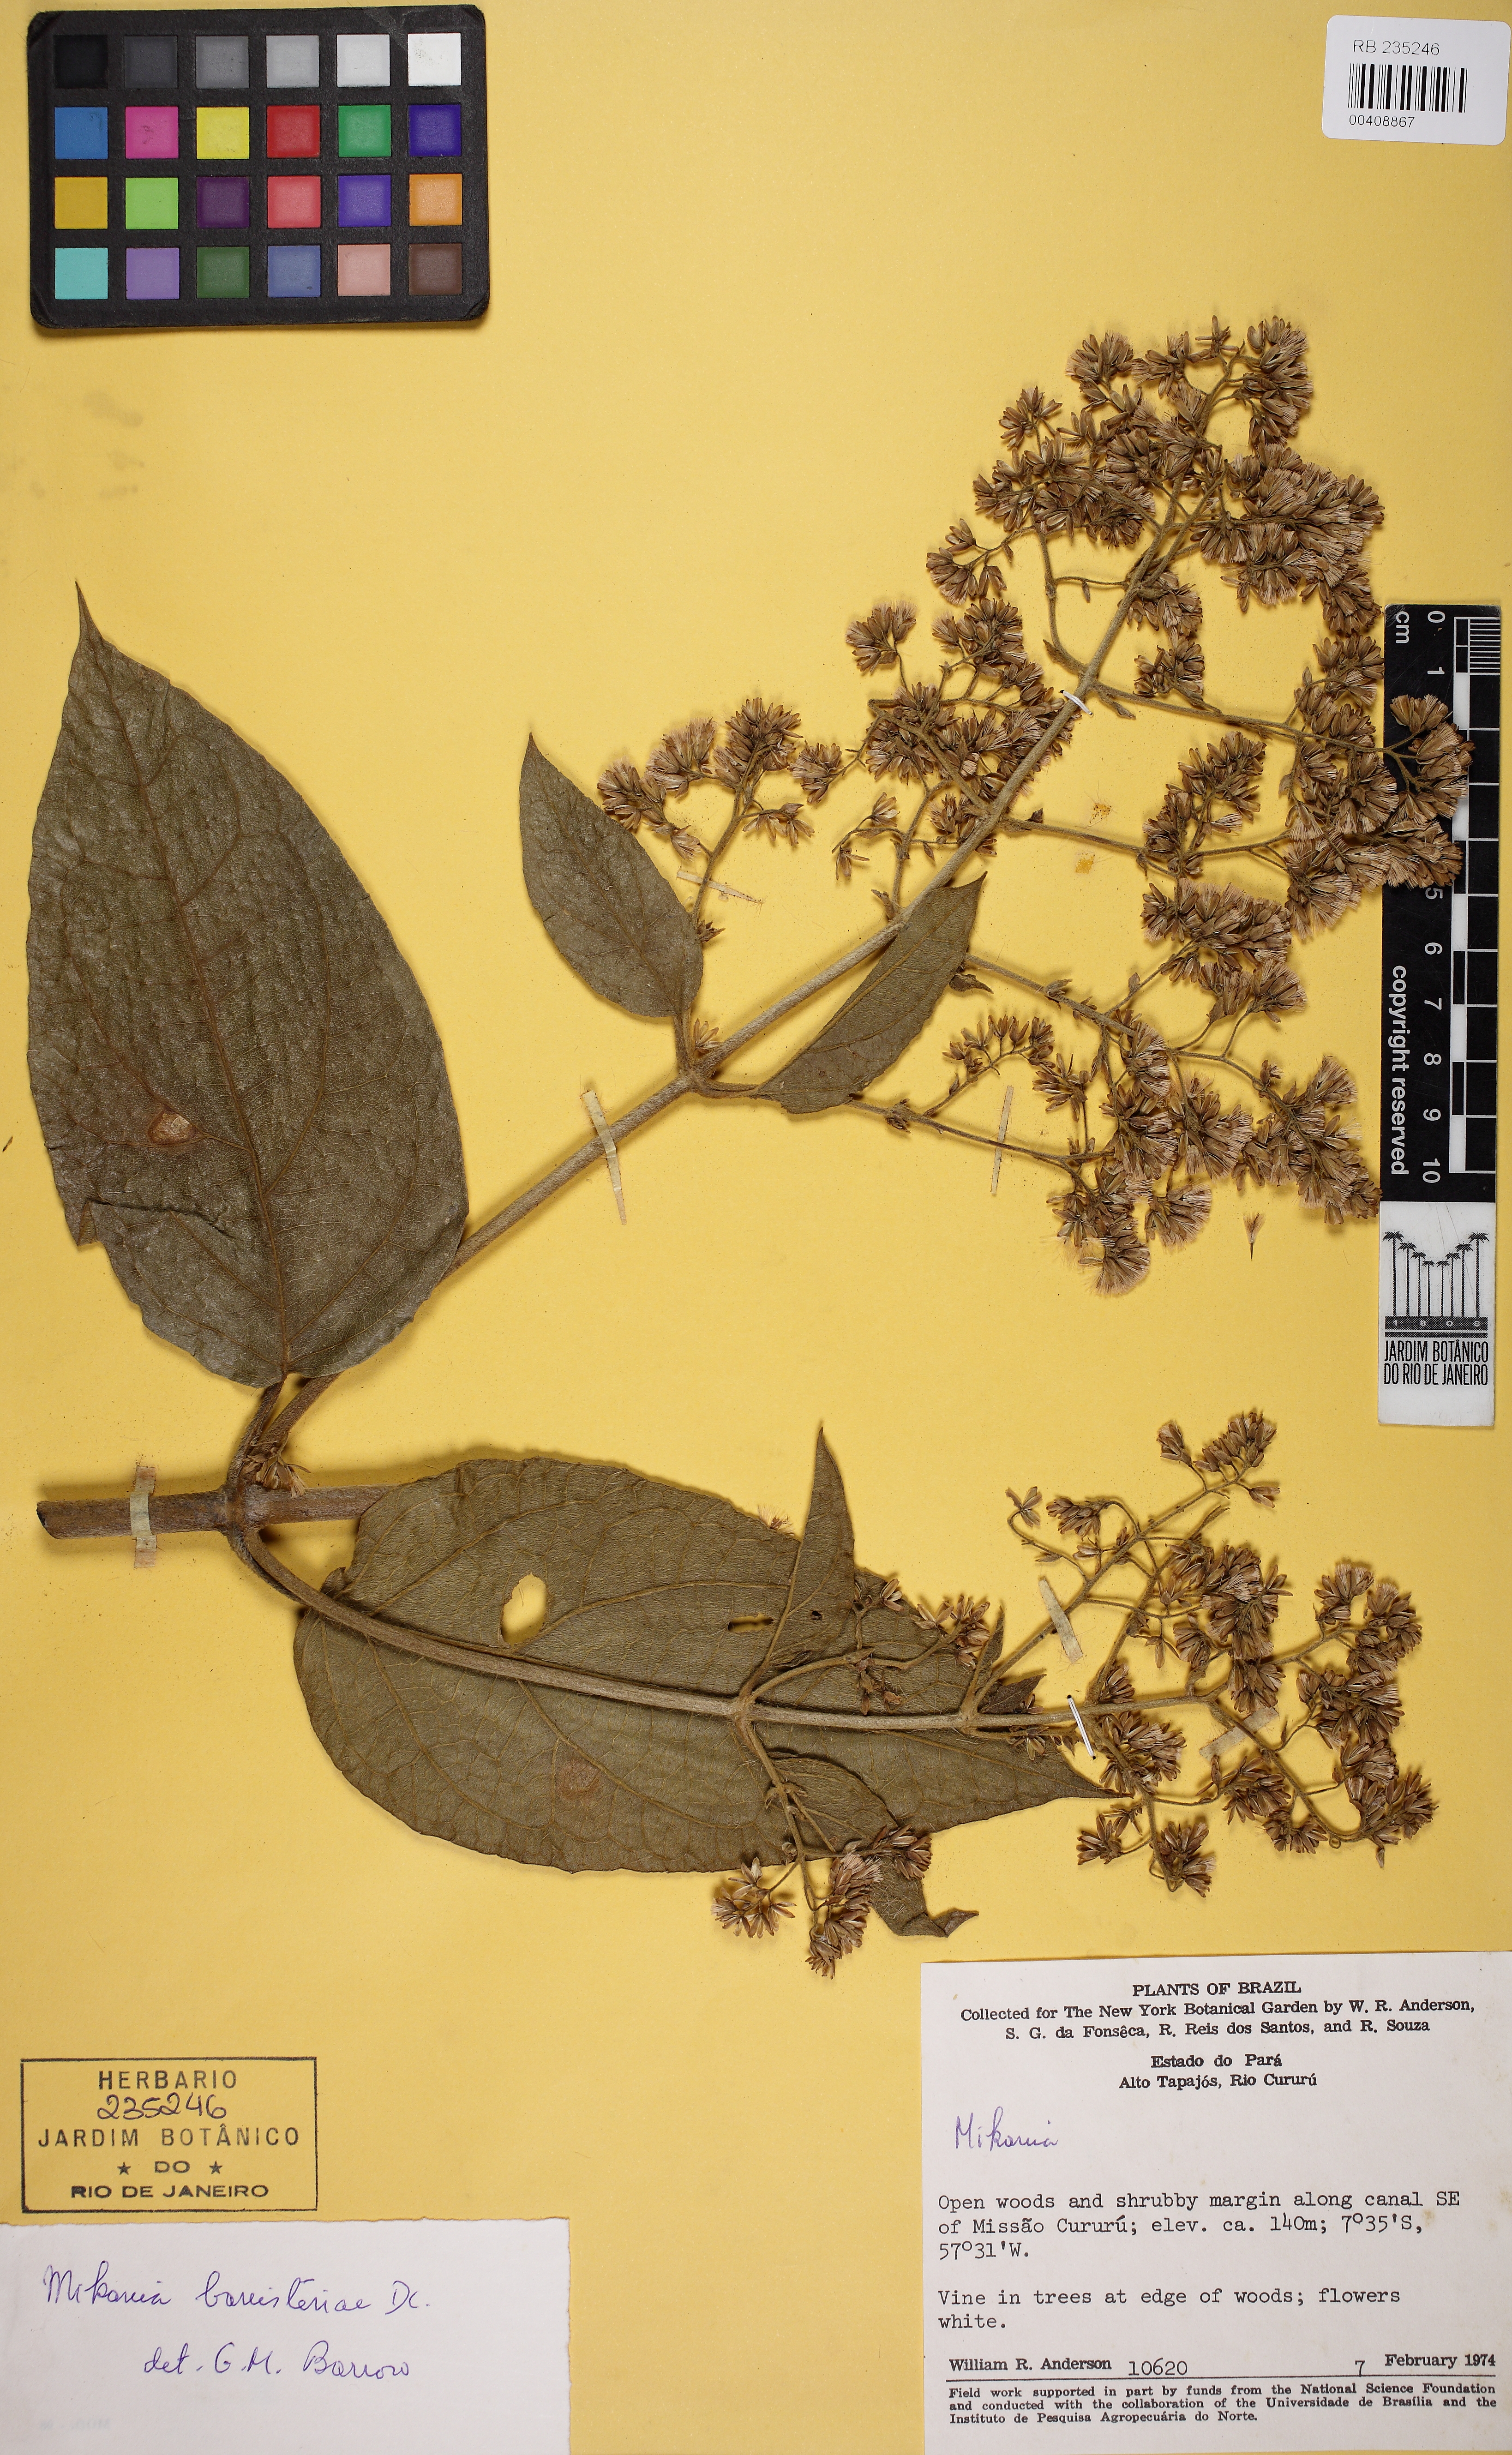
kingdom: Plantae
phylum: Tracheophyta
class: Magnoliopsida
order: Asterales
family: Asteraceae
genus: Mikania
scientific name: Mikania banisteriae
